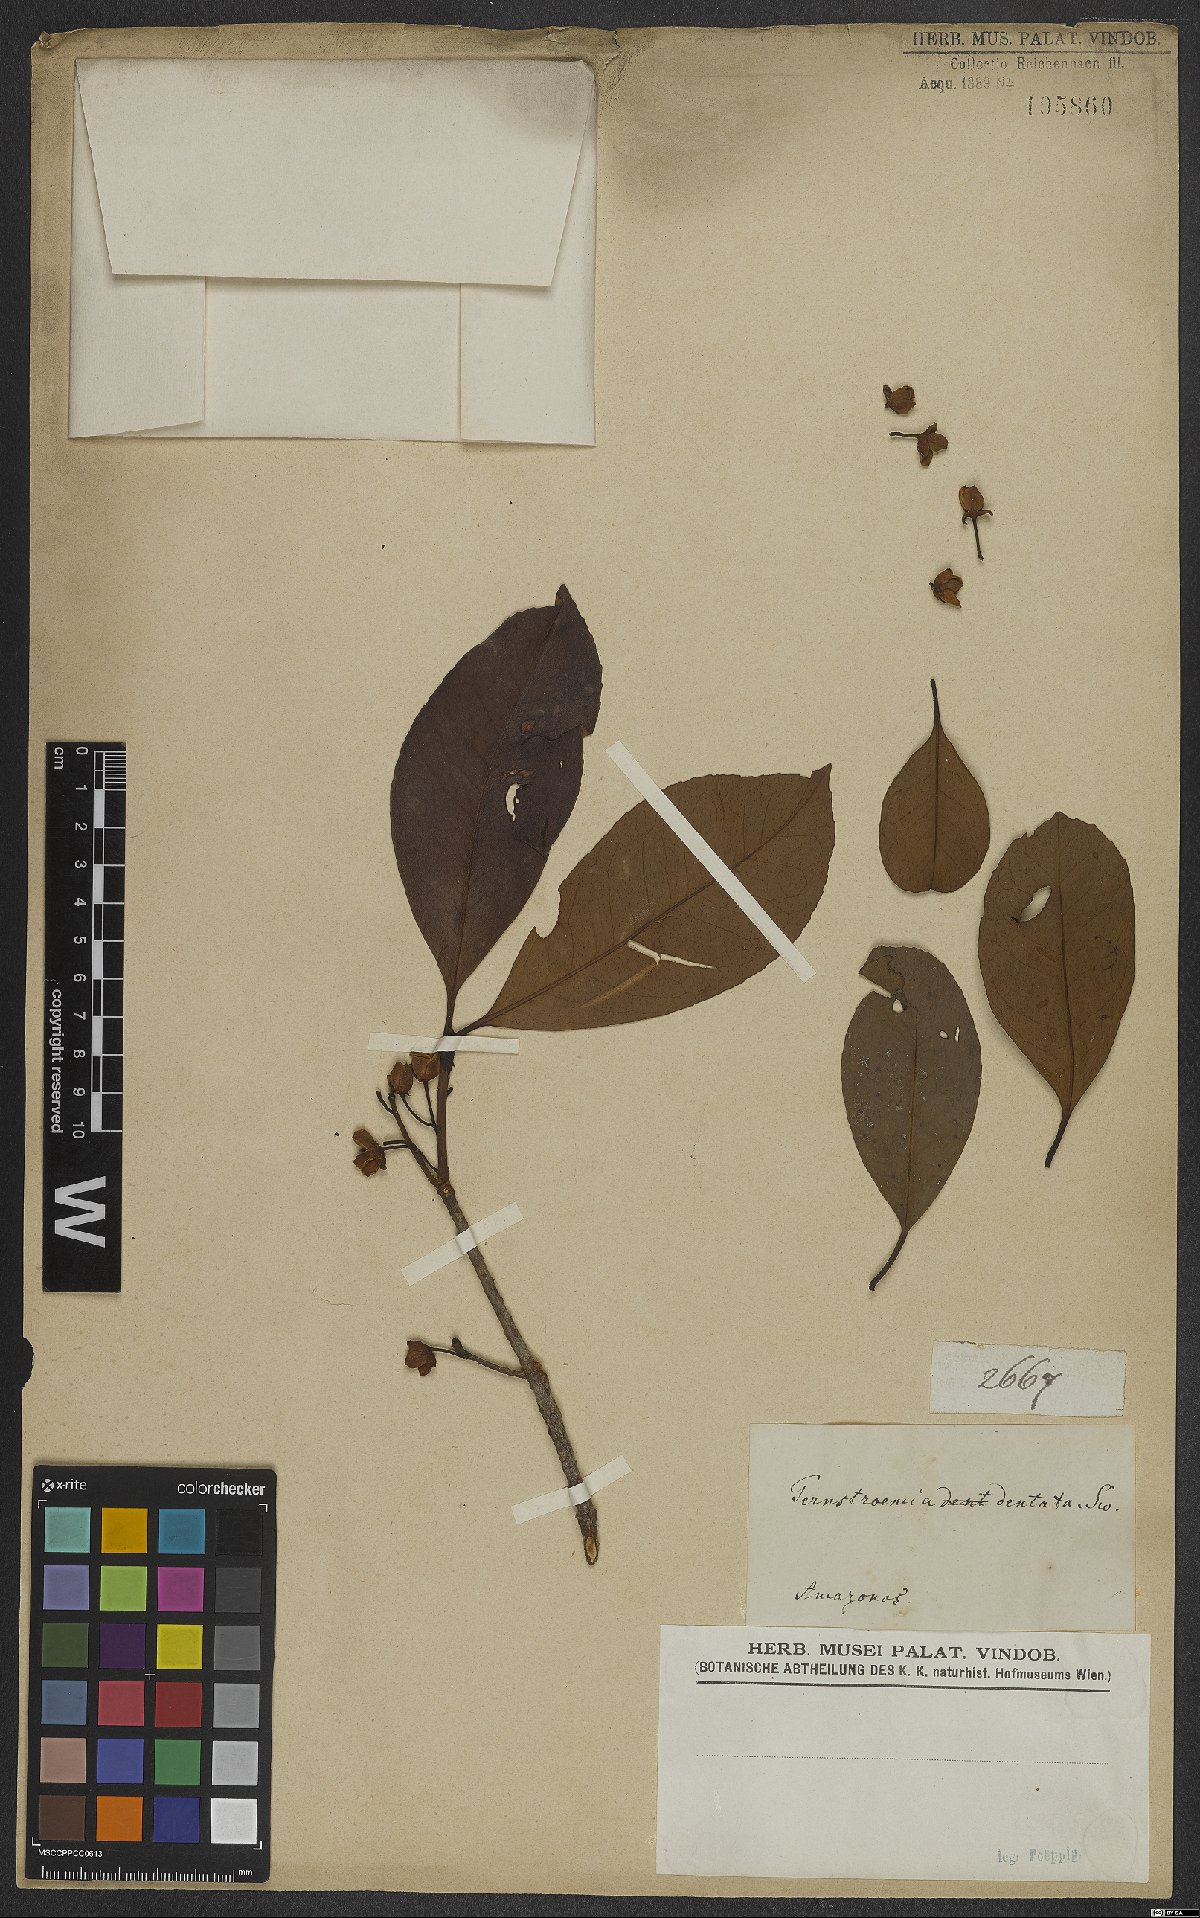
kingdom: Plantae
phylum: Tracheophyta
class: Magnoliopsida
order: Ericales
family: Pentaphylacaceae
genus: Ternstroemia
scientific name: Ternstroemia dentata
